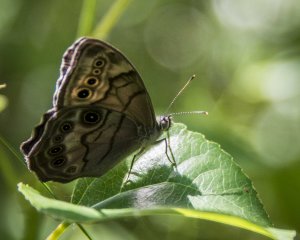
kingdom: Animalia
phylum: Arthropoda
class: Insecta
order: Lepidoptera
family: Nymphalidae
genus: Lethe
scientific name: Lethe anthedon
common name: Northern Pearly-Eye
